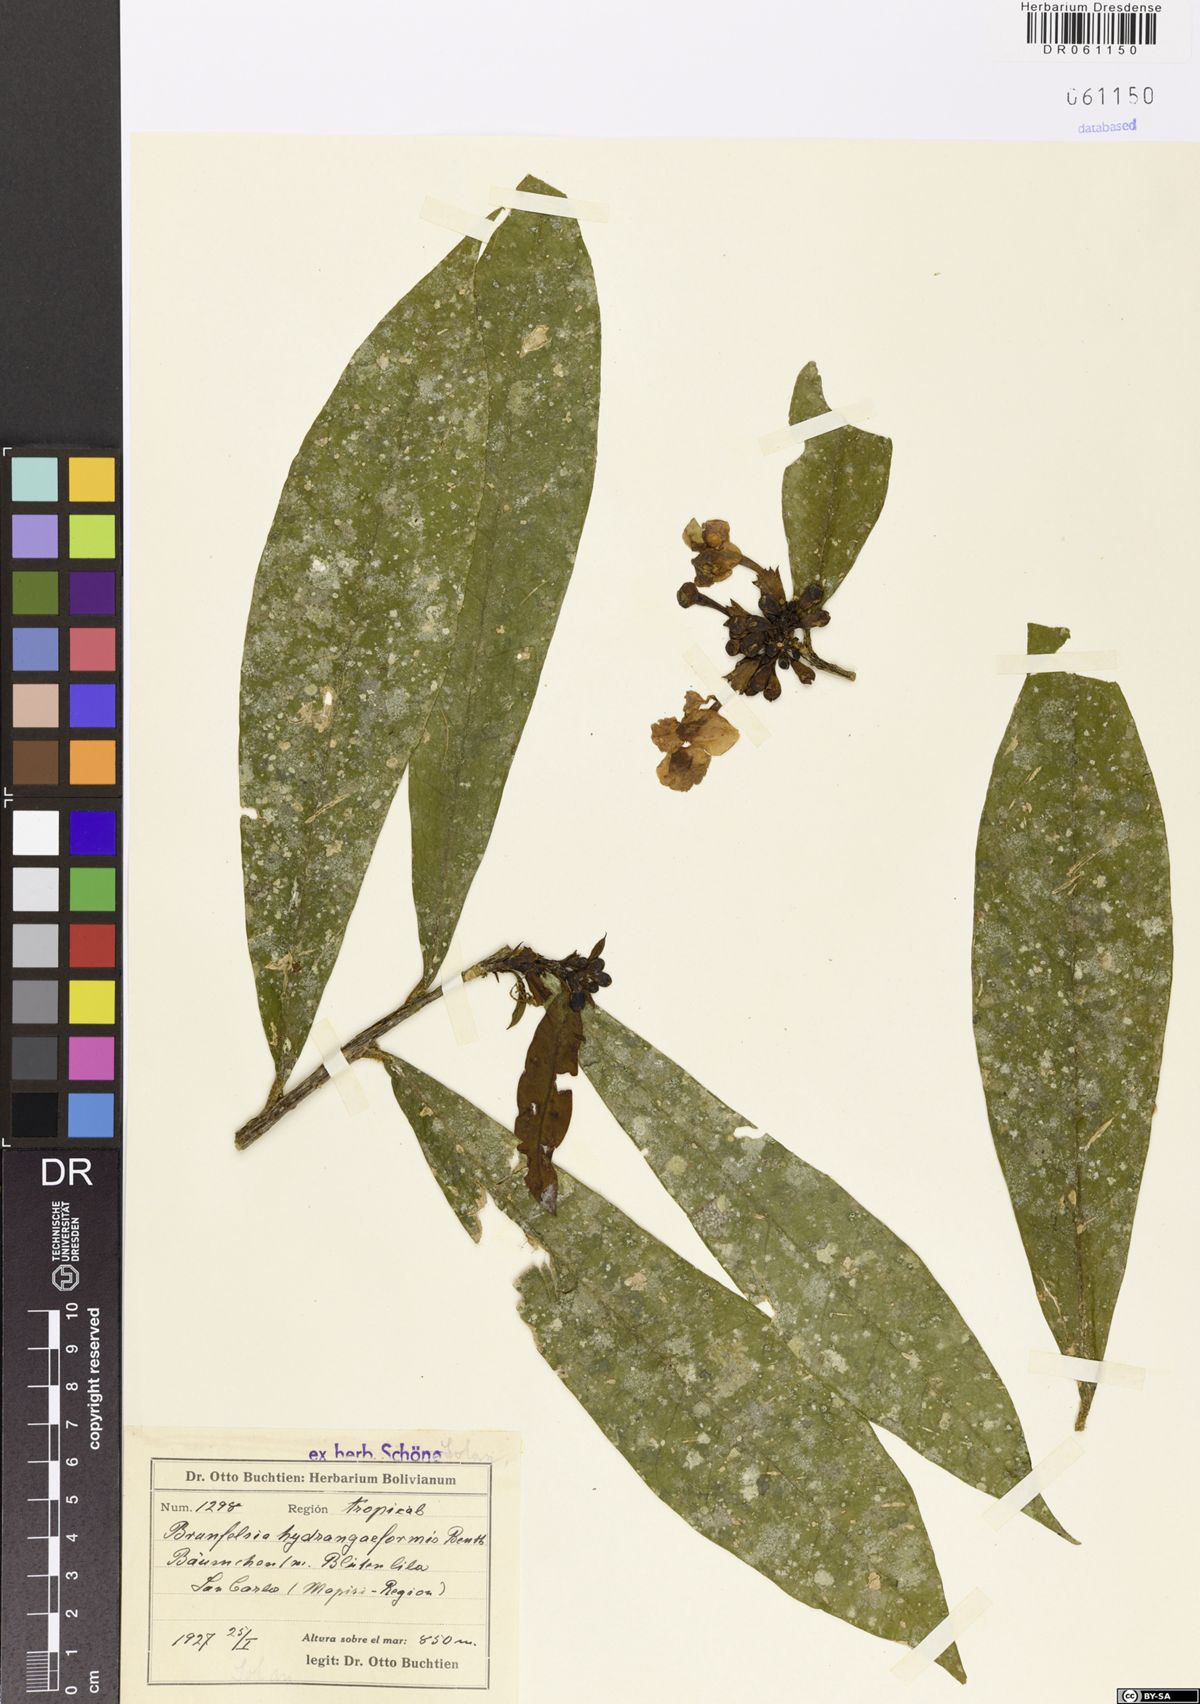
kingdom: Plantae
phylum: Tracheophyta
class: Magnoliopsida
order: Solanales
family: Solanaceae
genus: Brunfelsia
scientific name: Brunfelsia hydrangeiformis
